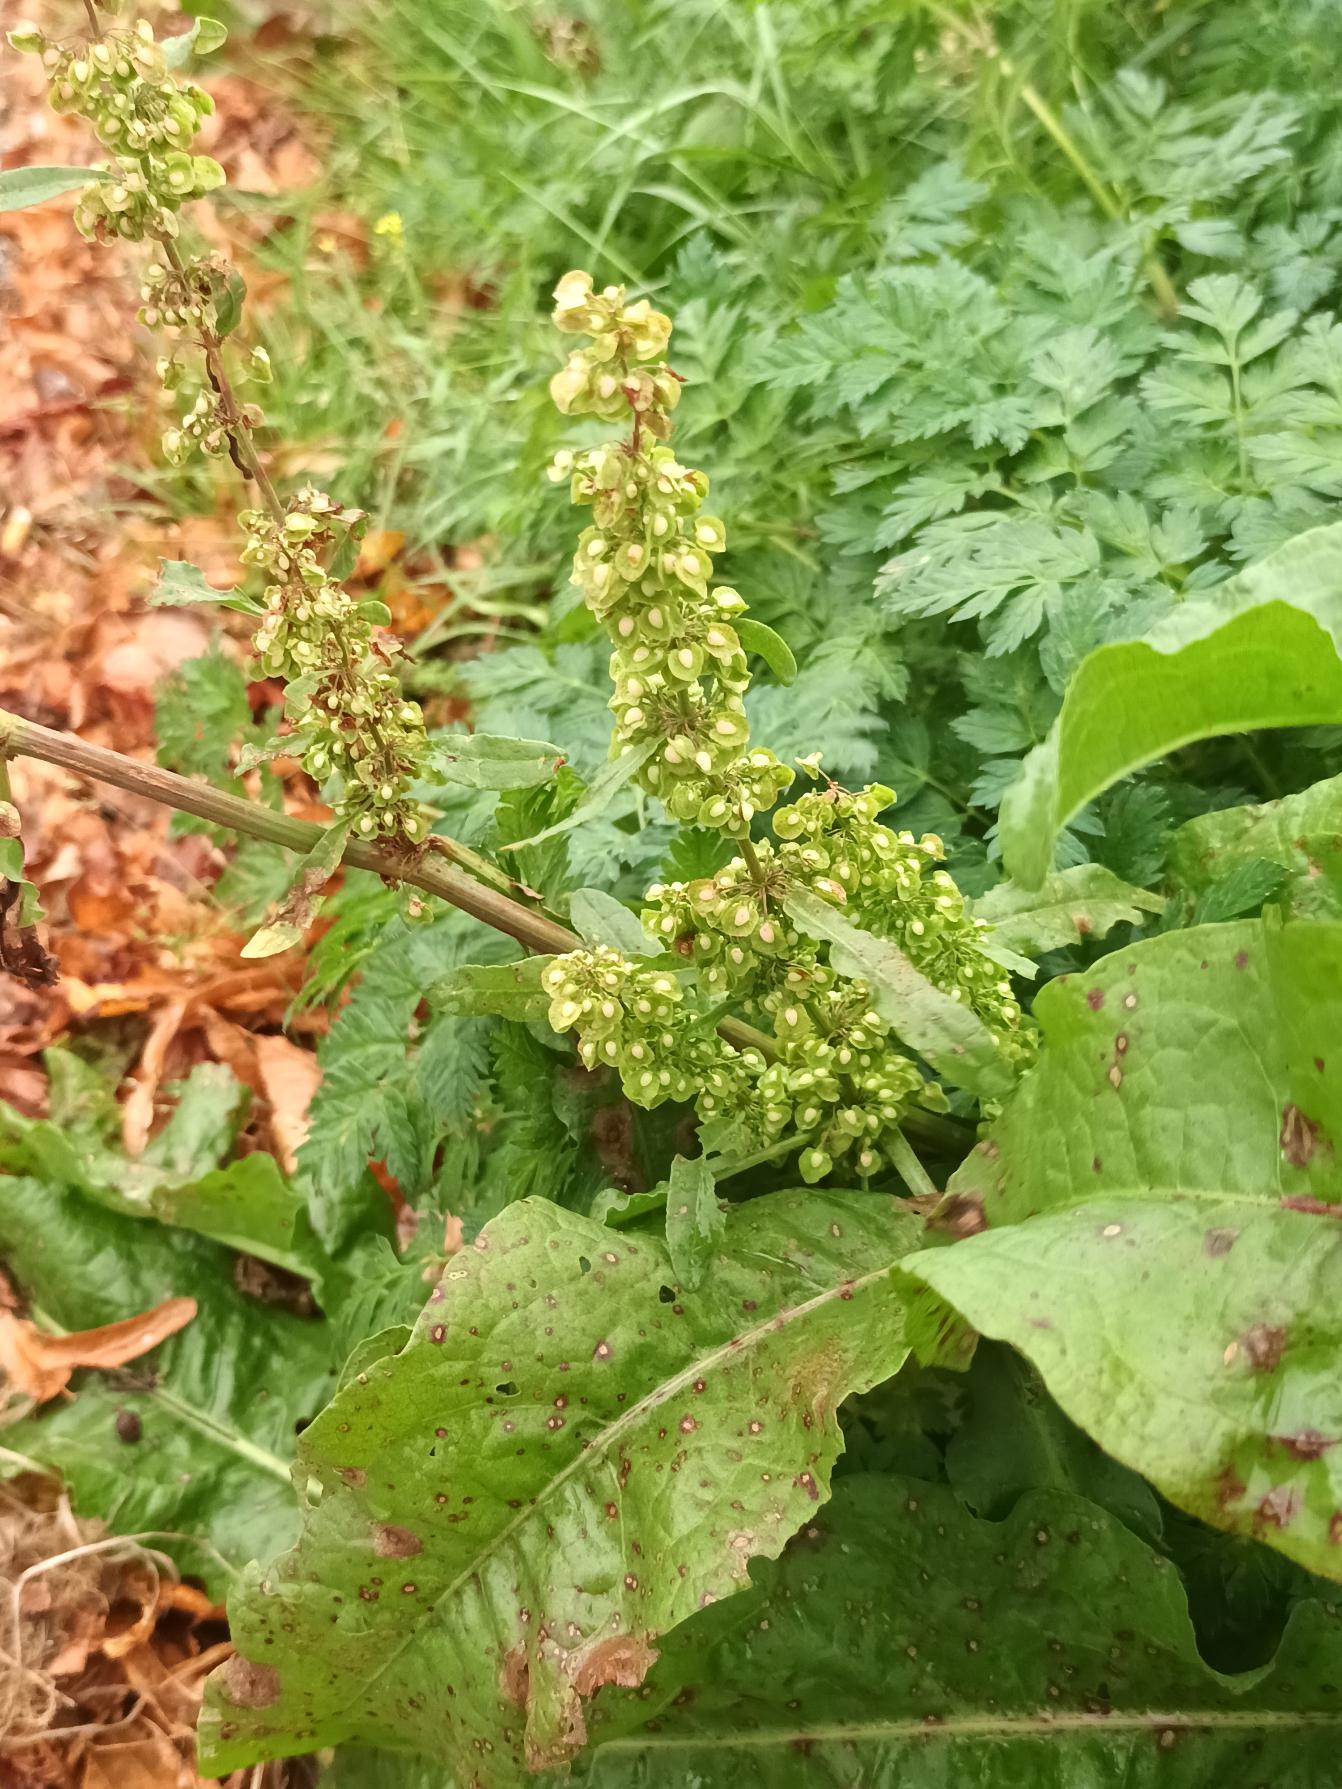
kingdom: Plantae
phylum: Tracheophyta
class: Magnoliopsida
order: Caryophyllales
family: Polygonaceae
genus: Rumex
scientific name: Rumex crispus
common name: Kruset skræppe
